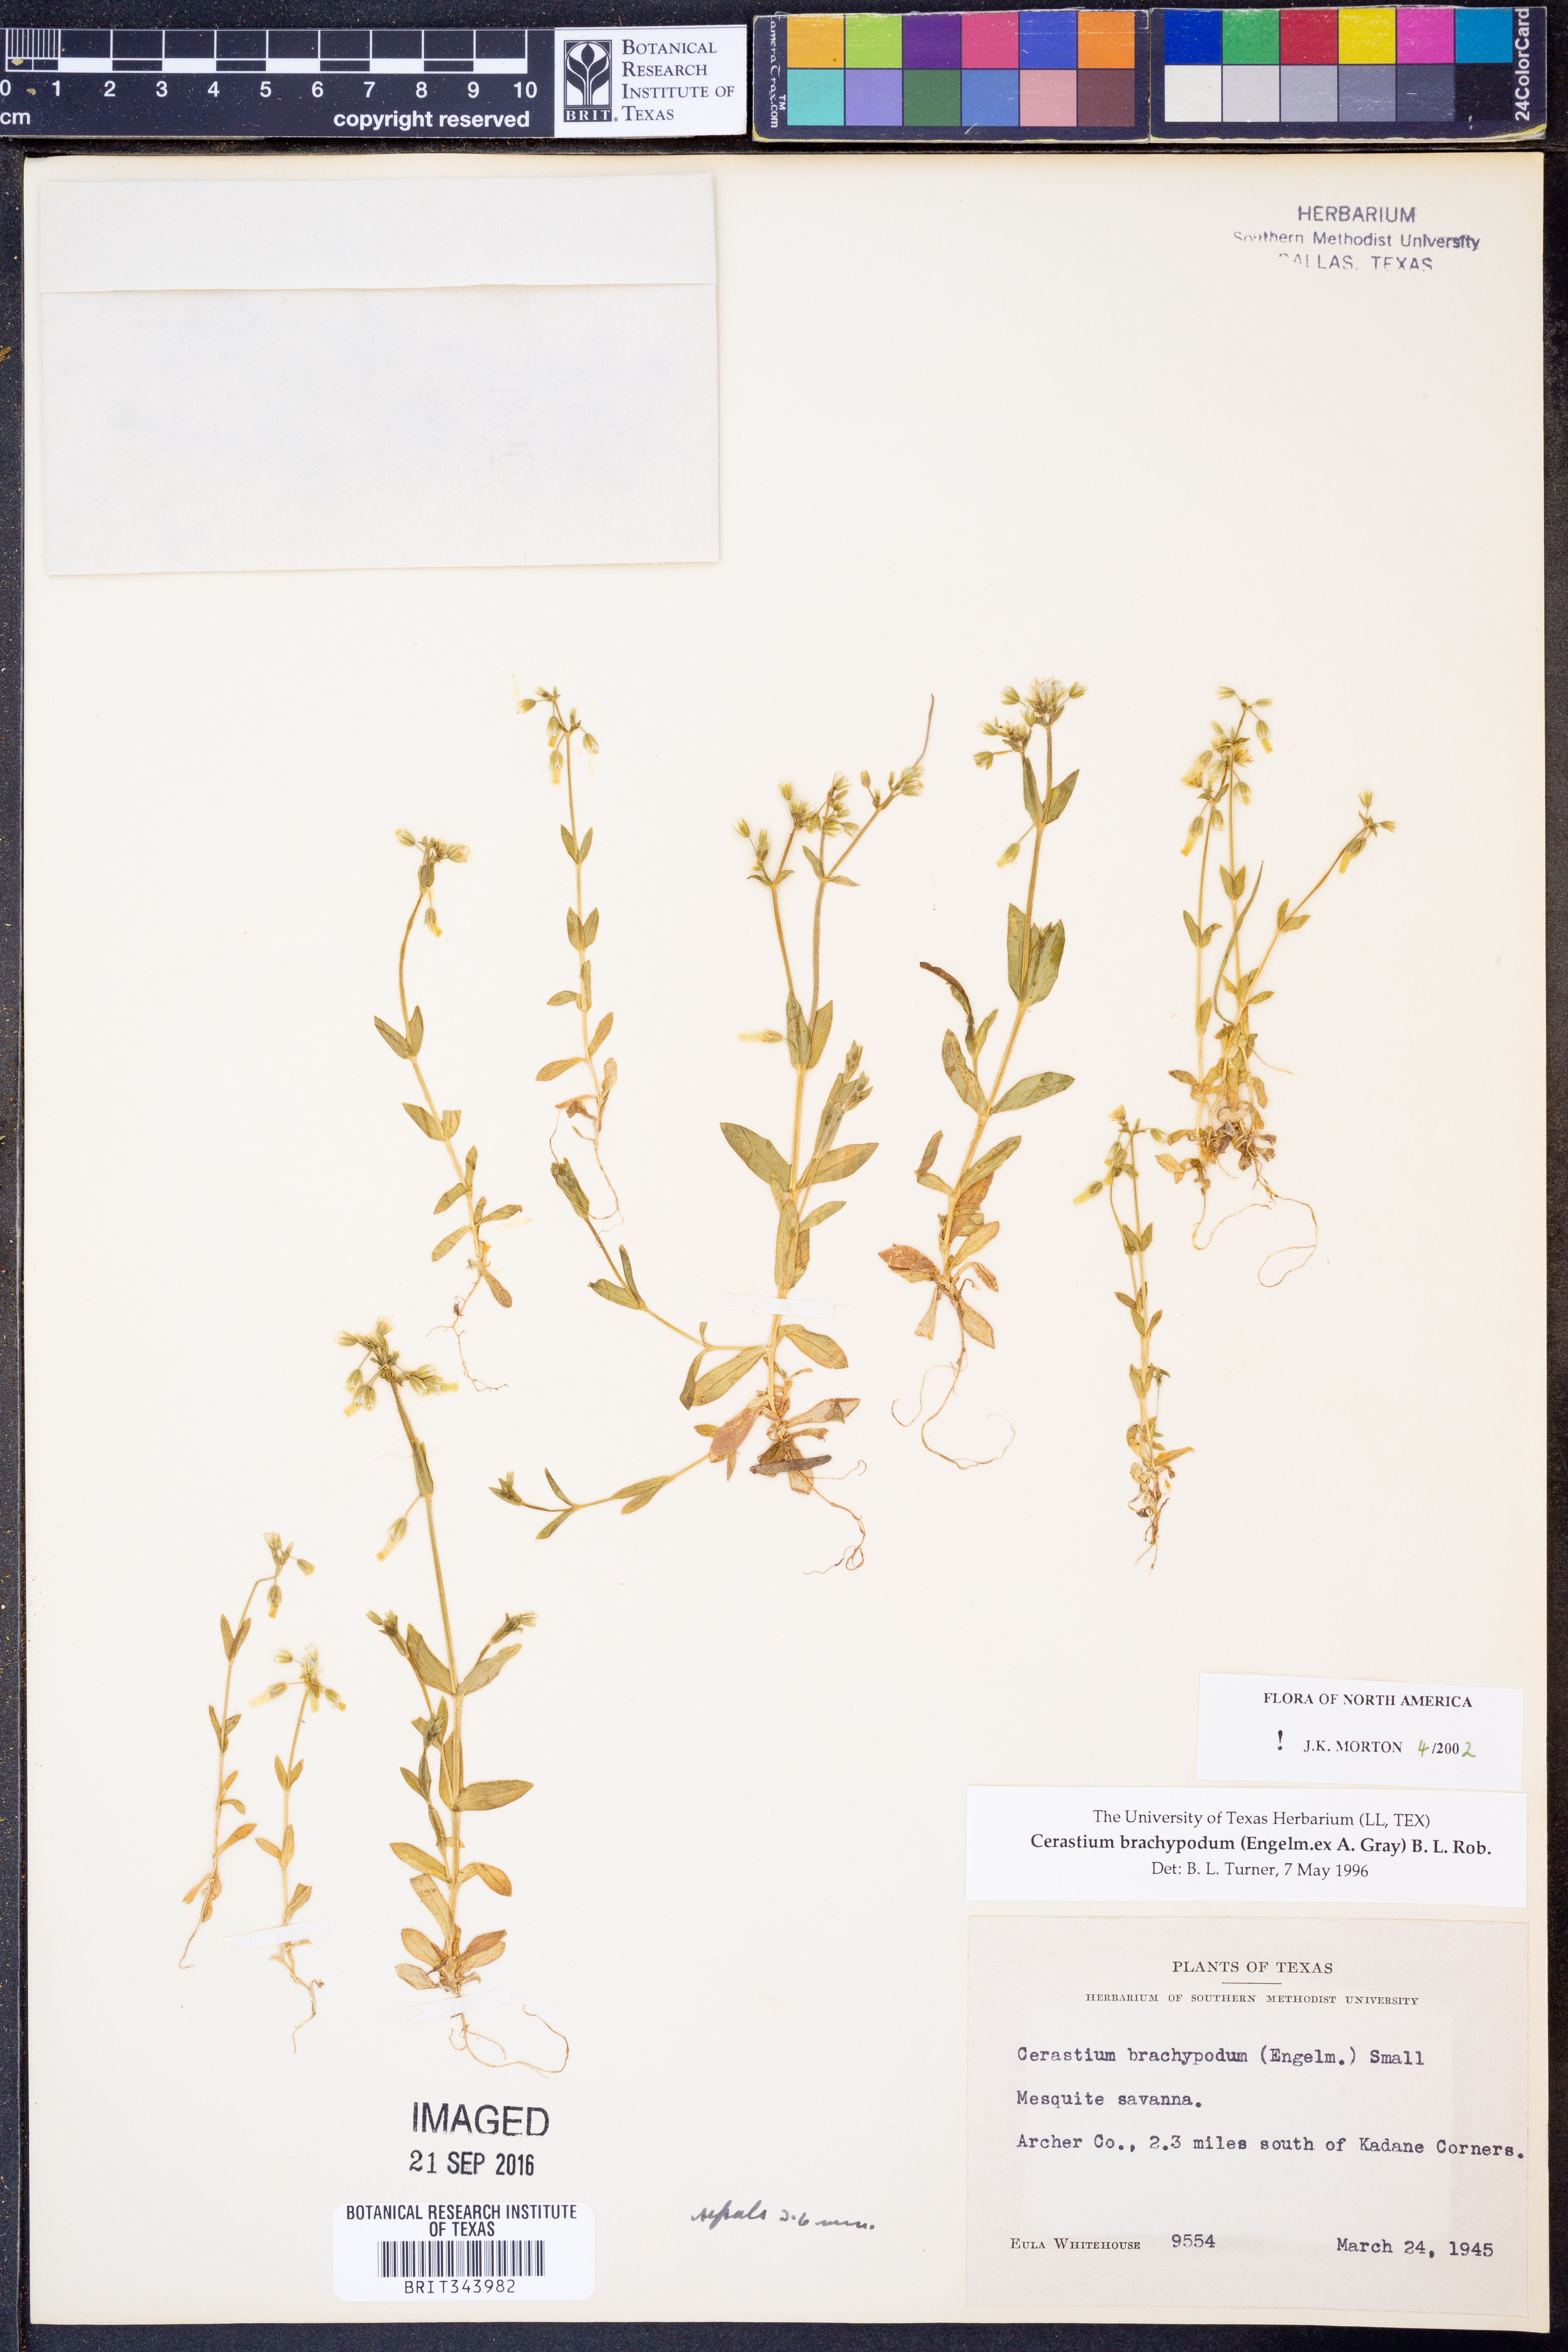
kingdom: Plantae
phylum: Tracheophyta
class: Magnoliopsida
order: Caryophyllales
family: Caryophyllaceae
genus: Cerastium
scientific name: Cerastium brachypodum
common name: Short-pedicelled nodding chickweed
